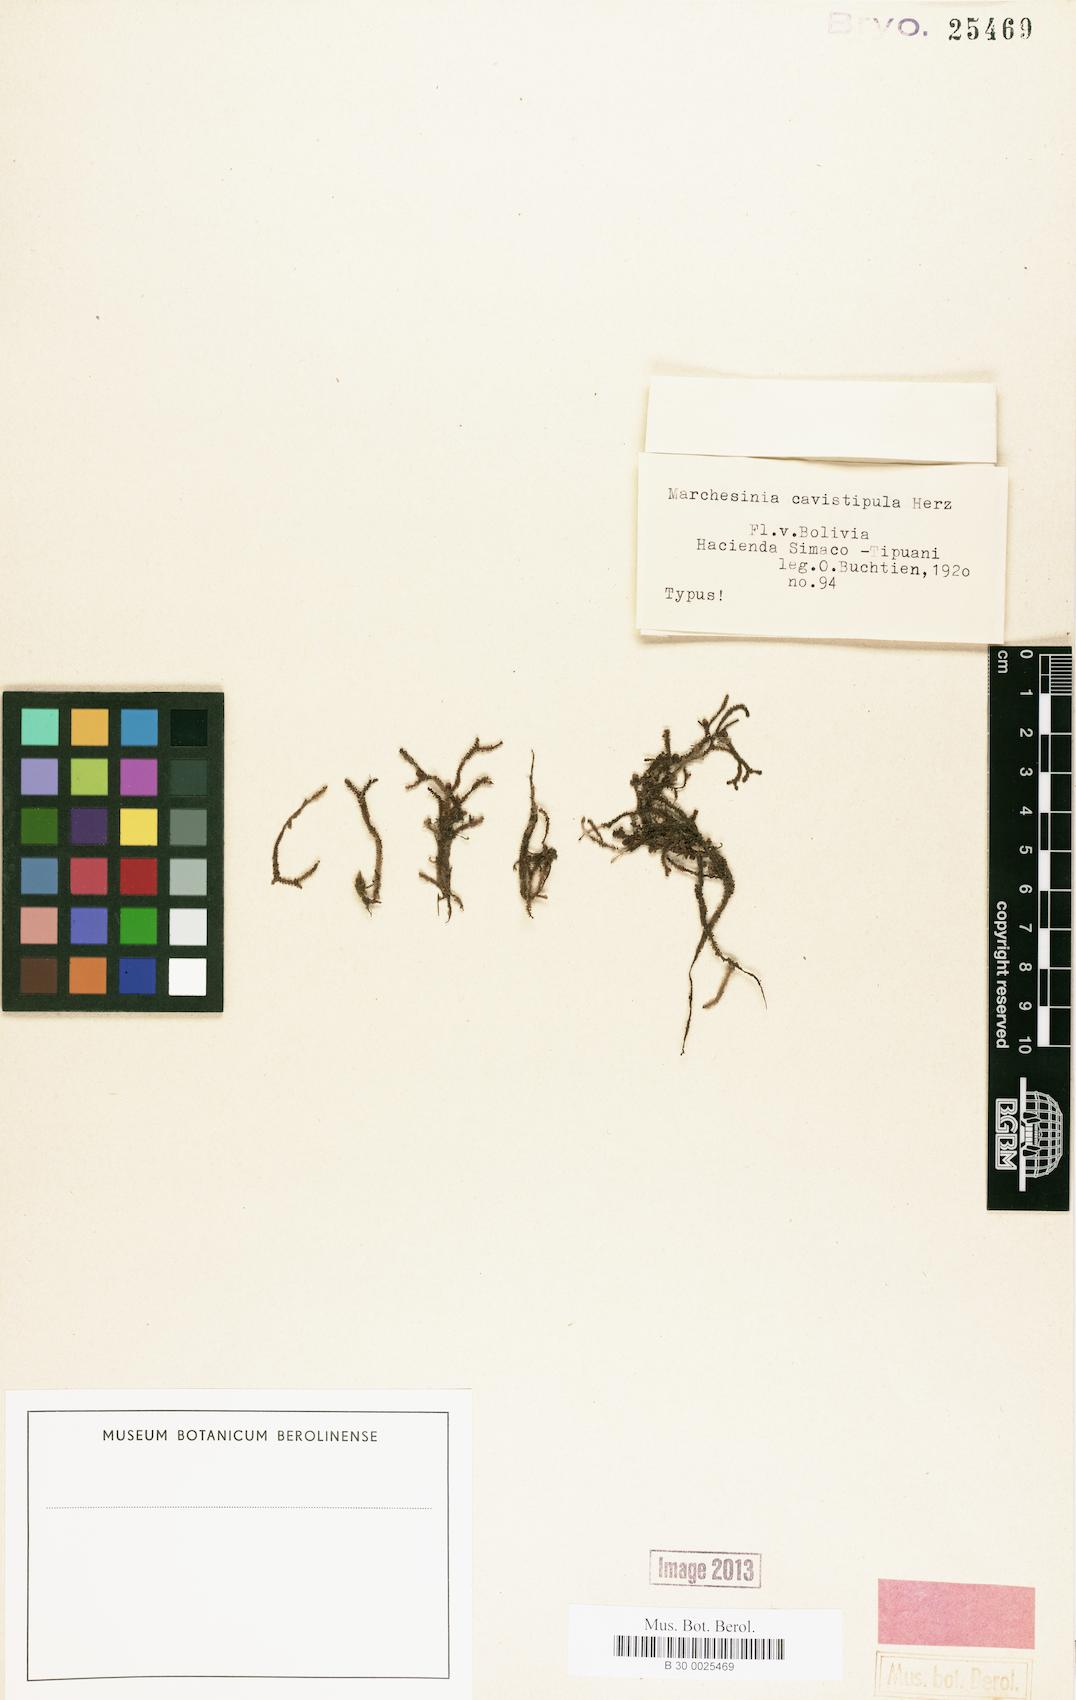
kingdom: Plantae
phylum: Marchantiophyta
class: Jungermanniopsida
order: Porellales
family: Lejeuneaceae
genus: Marchesinia
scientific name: Marchesinia brachiata
